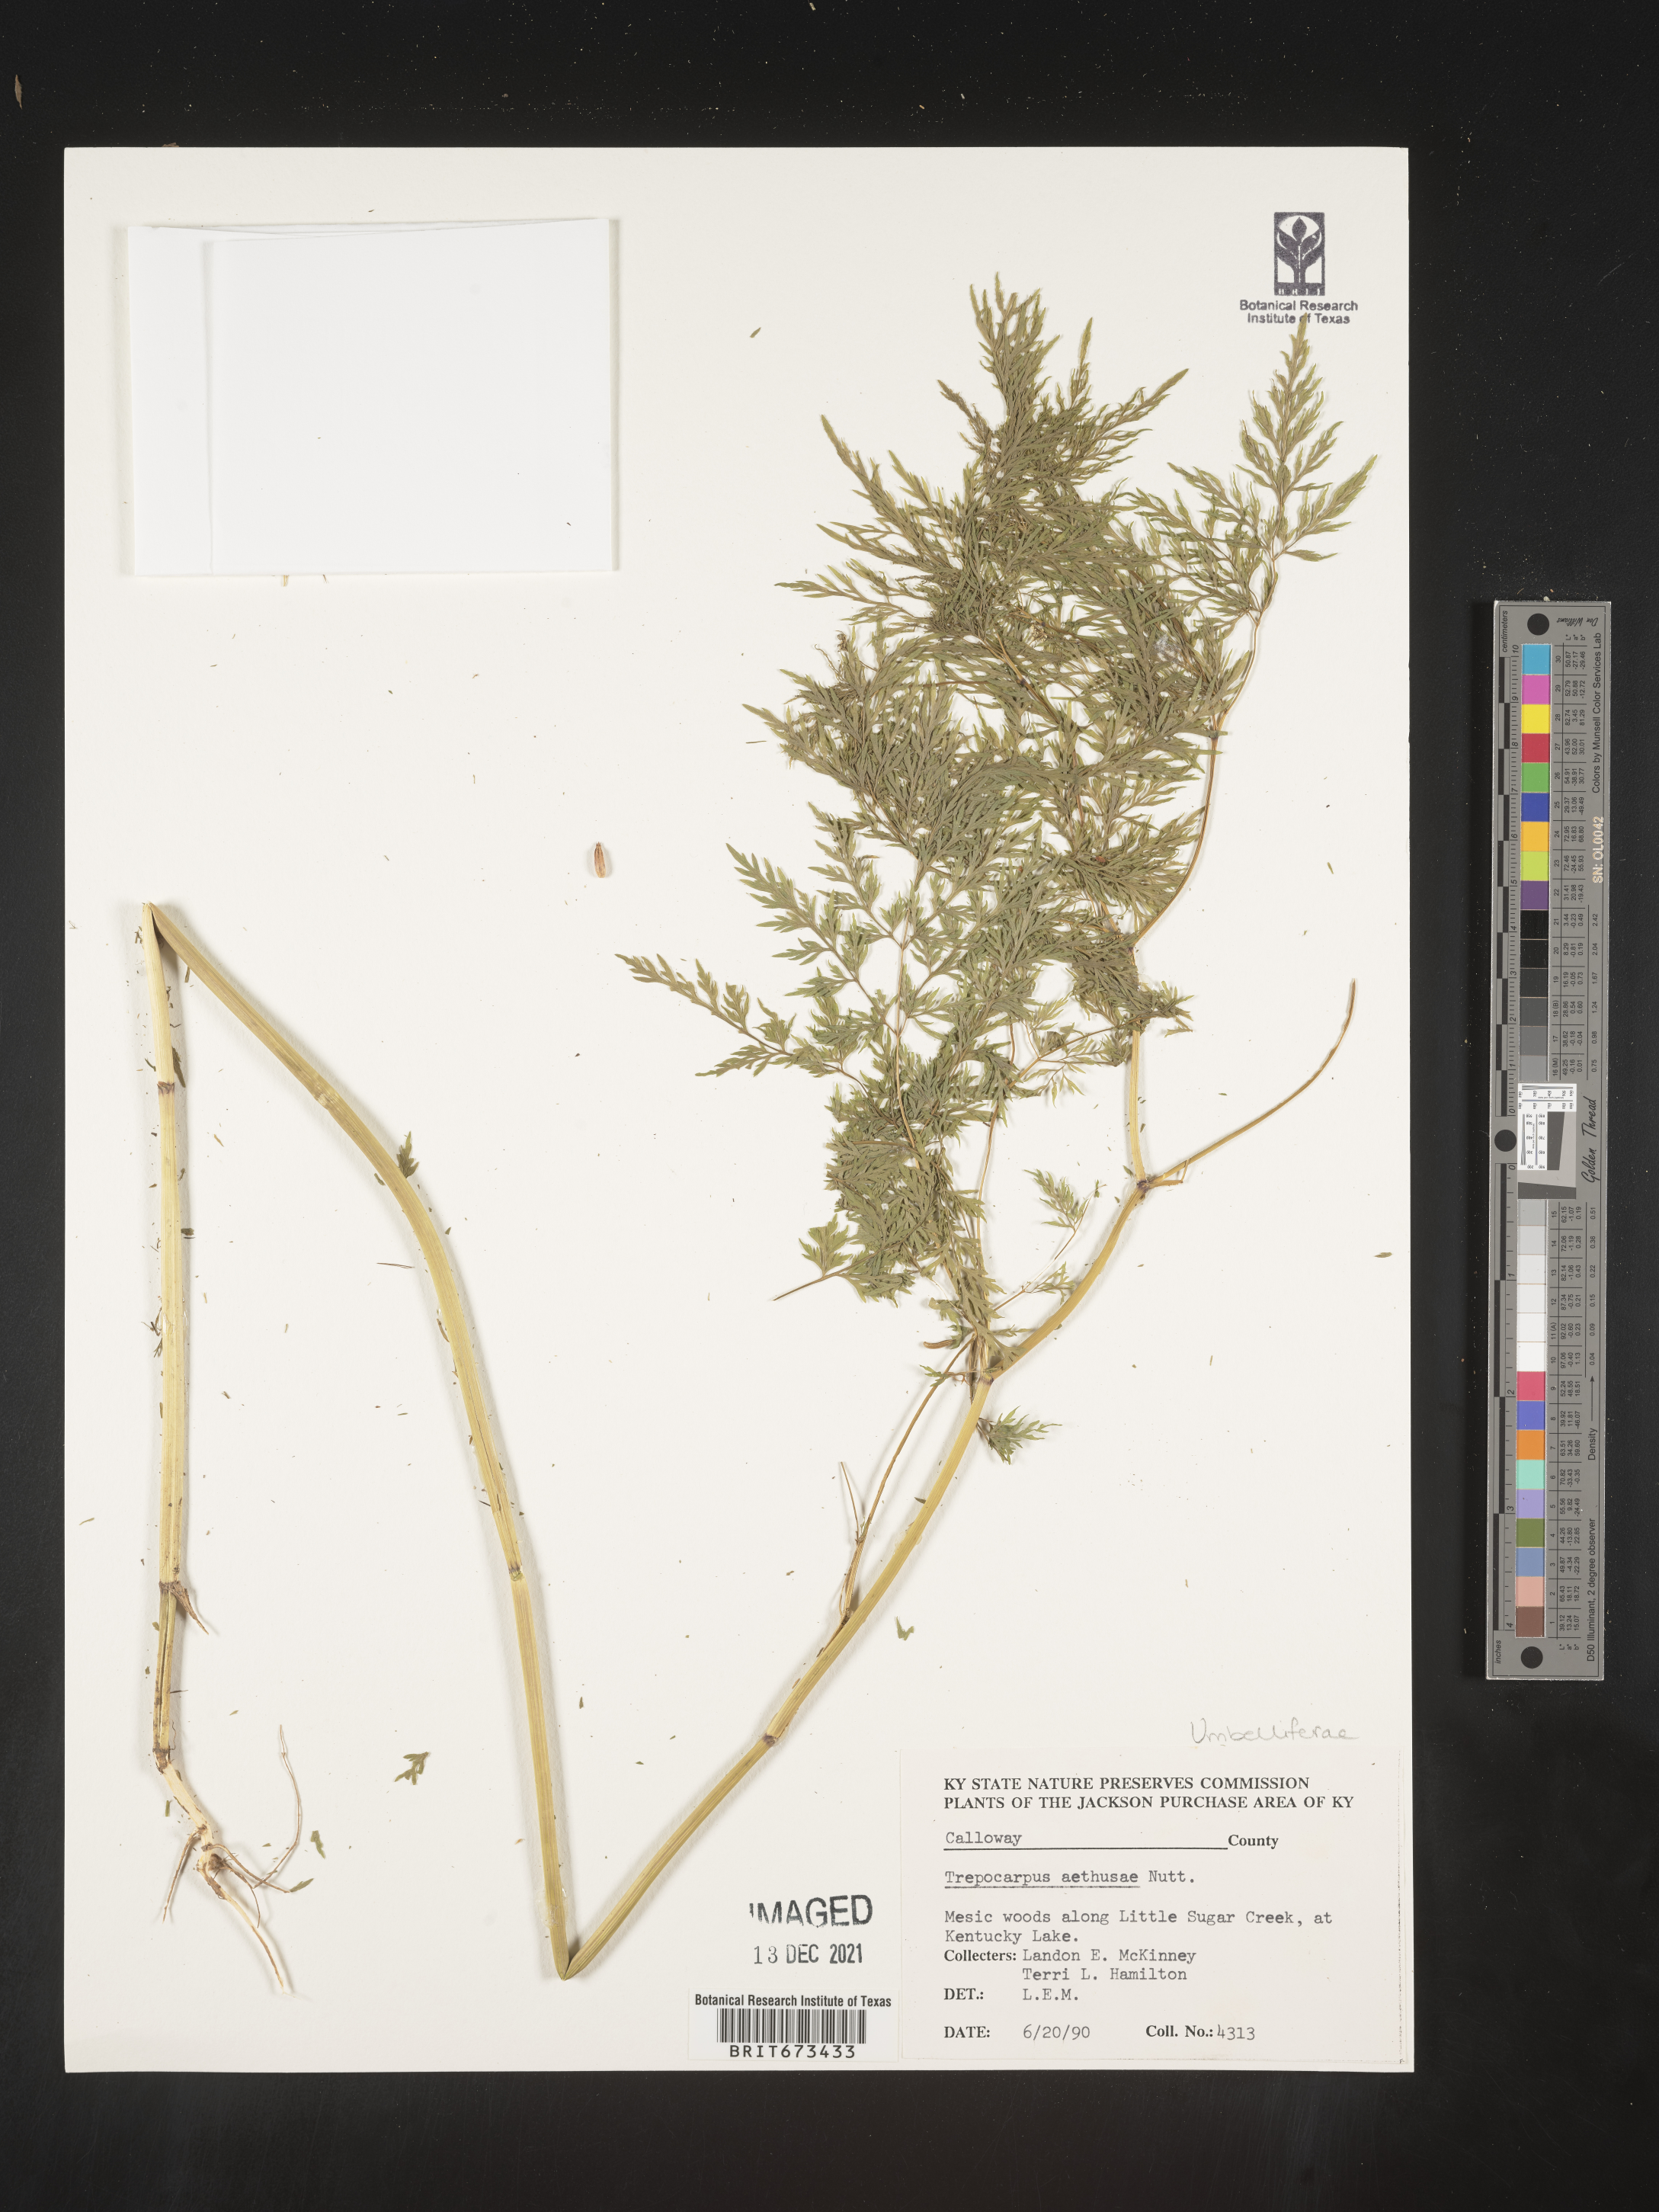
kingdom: Plantae
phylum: Tracheophyta
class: Magnoliopsida
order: Apiales
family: Apiaceae
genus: Trepocarpus
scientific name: Trepocarpus aethusae
